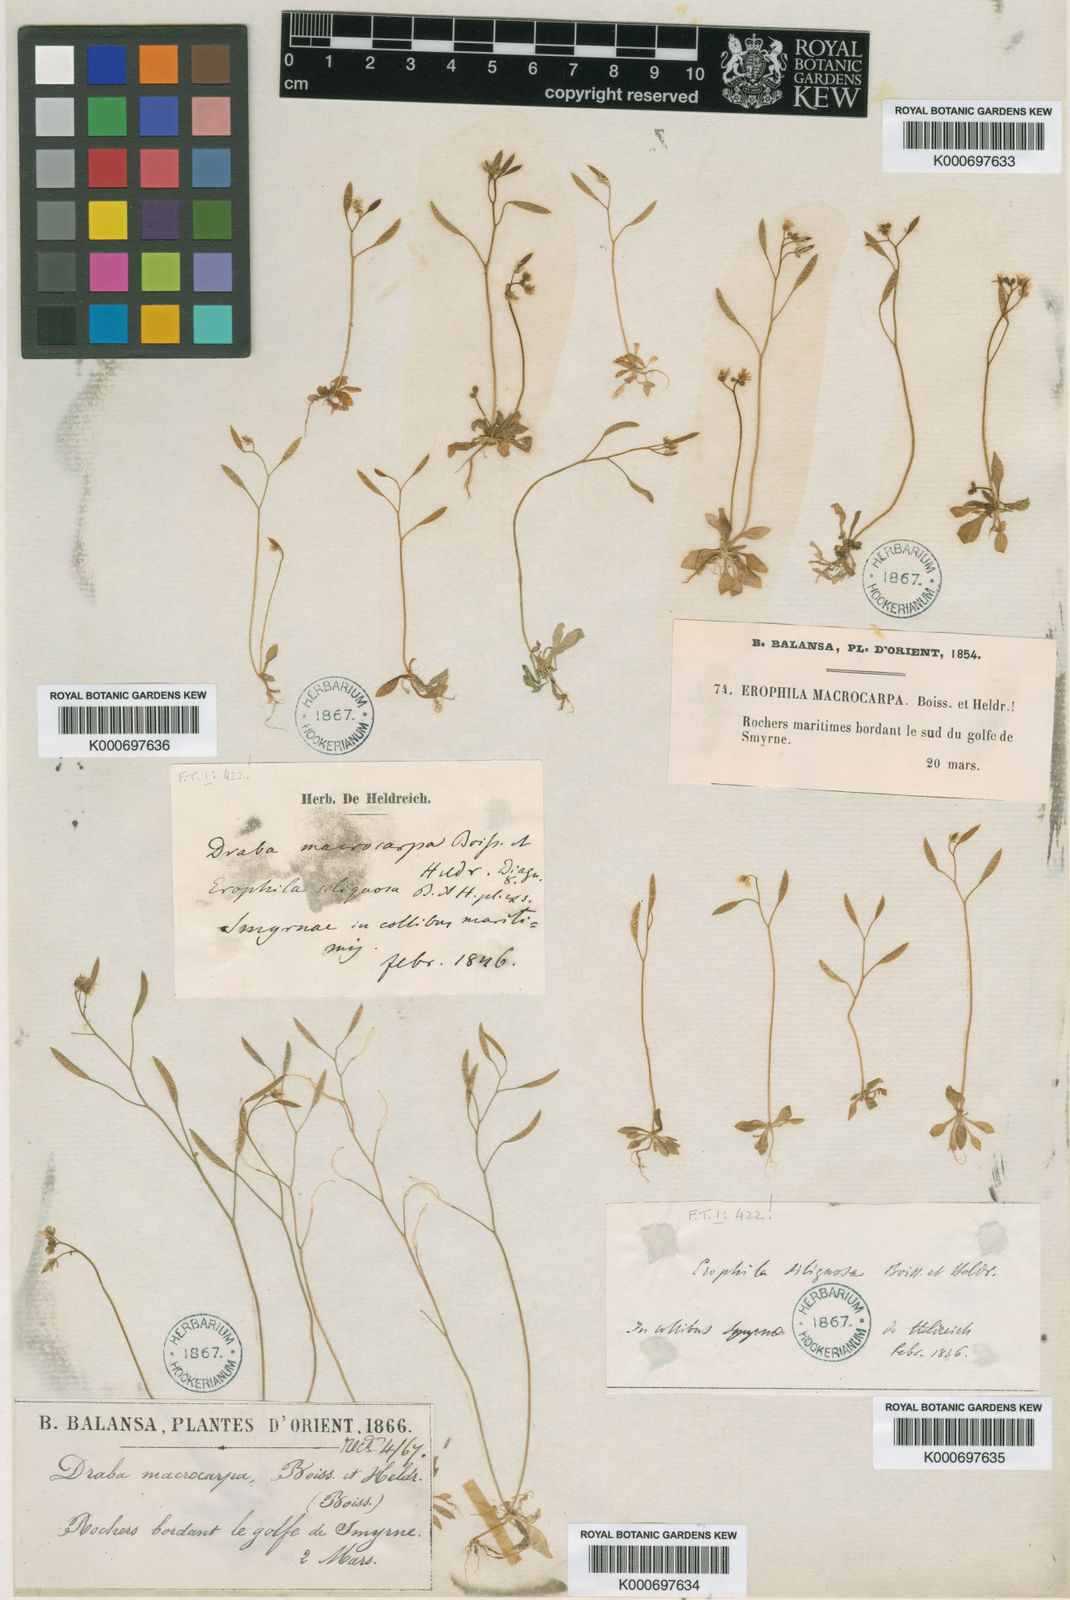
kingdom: Plantae
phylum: Tracheophyta
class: Magnoliopsida
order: Brassicales
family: Brassicaceae
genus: Draba
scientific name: Draba verna
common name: Spring draba
